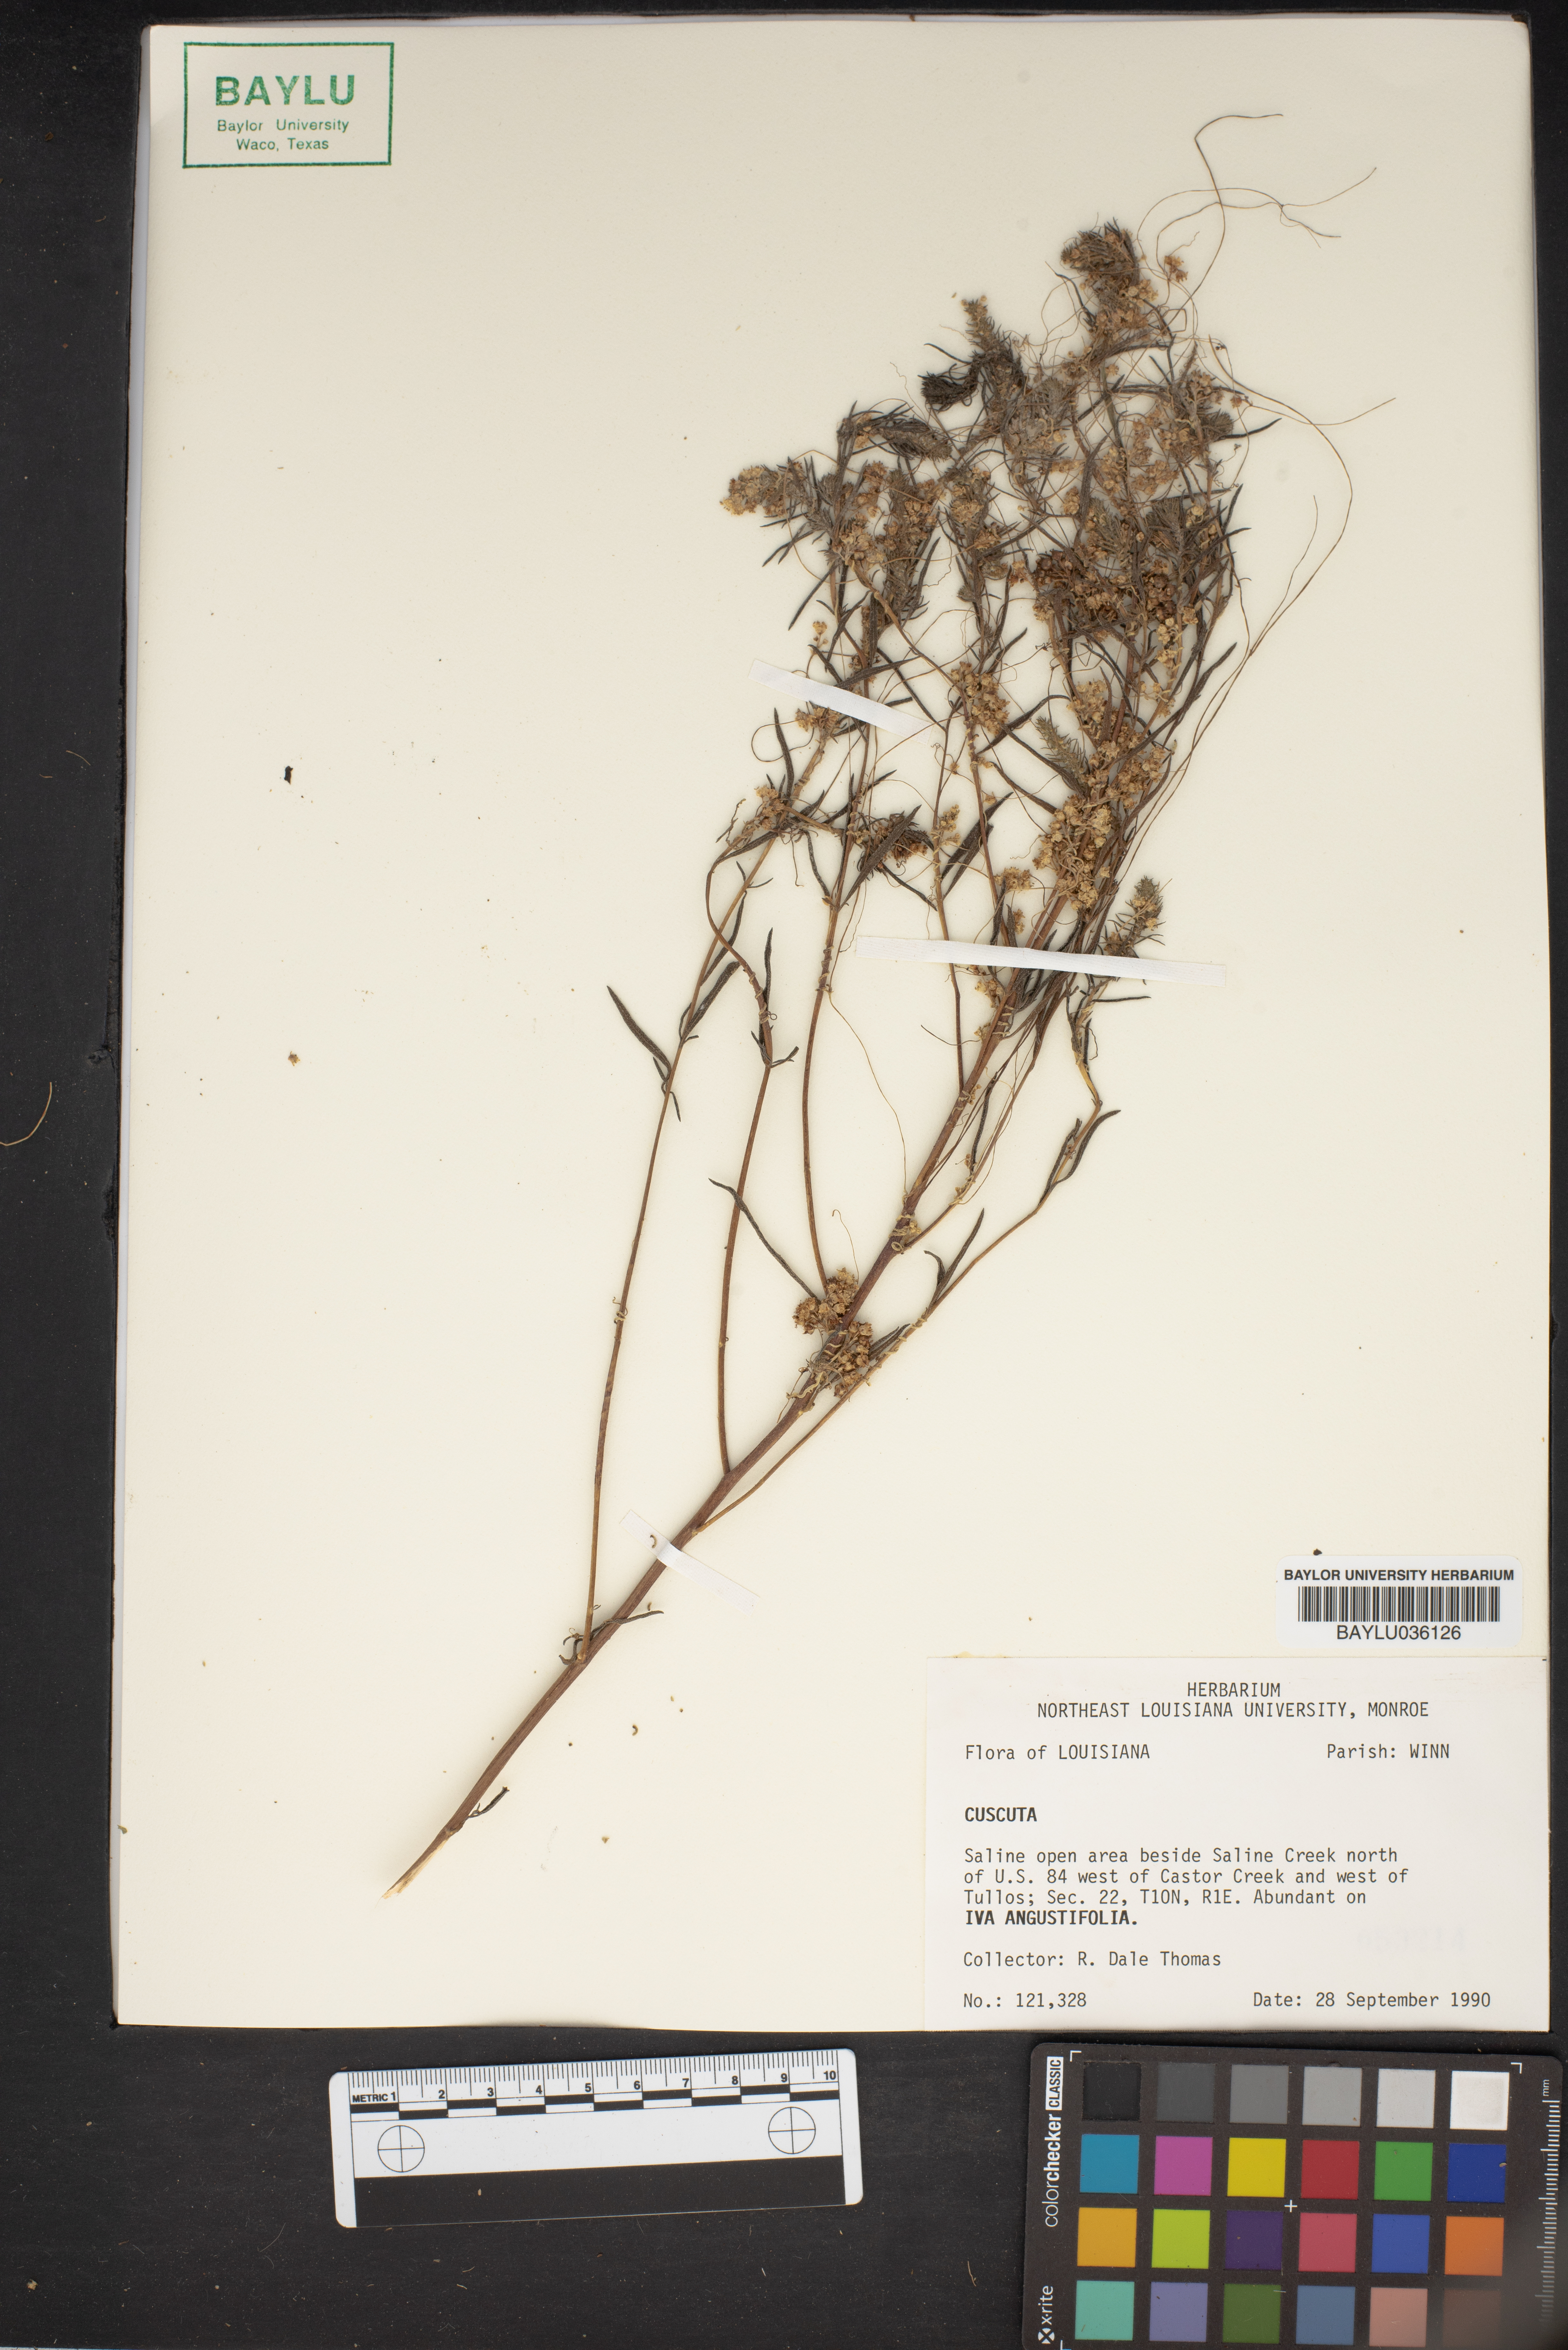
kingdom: Plantae
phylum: Tracheophyta
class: Magnoliopsida
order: Solanales
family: Convolvulaceae
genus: Cuscuta
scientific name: Cuscuta
